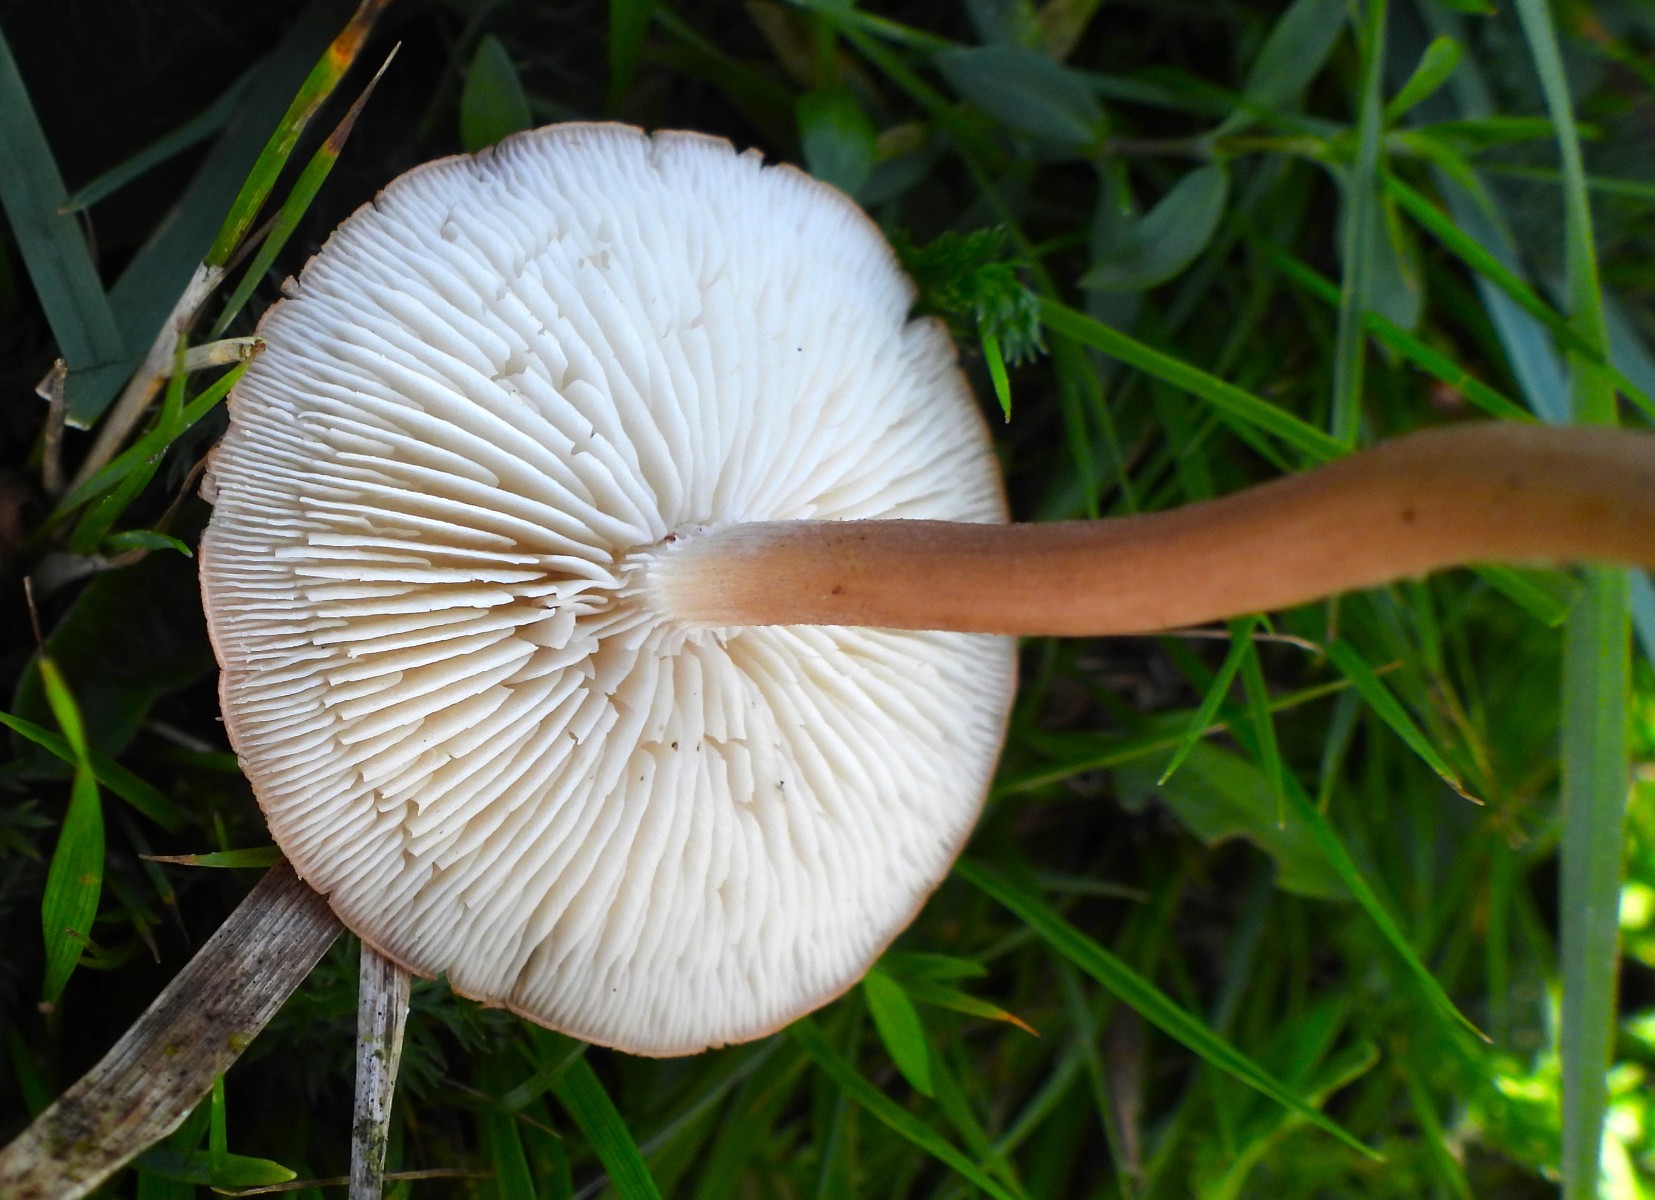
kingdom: Fungi
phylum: Basidiomycota
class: Agaricomycetes
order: Agaricales
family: Lyophyllaceae
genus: Calocybe
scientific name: Calocybe carnea
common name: rosa fagerhat
